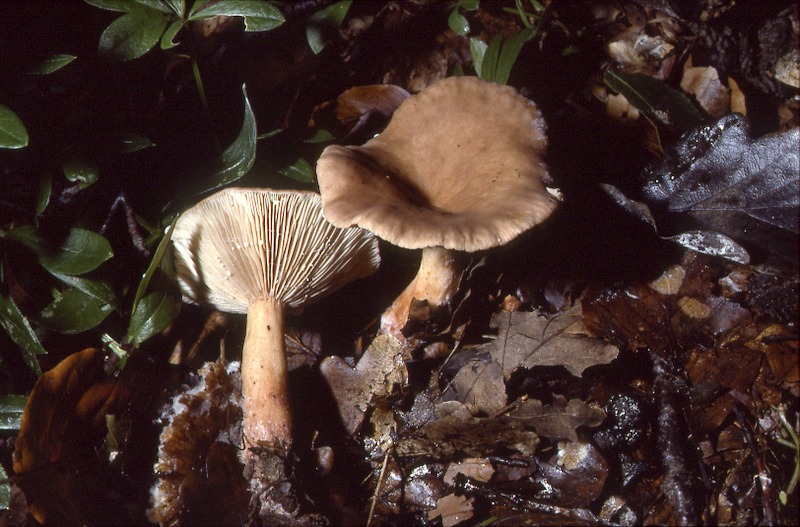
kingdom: Fungi
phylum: Basidiomycota
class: Agaricomycetes
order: Russulales
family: Russulaceae
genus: Lactarius
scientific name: Lactarius subdulcis
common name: Mild milkcap
